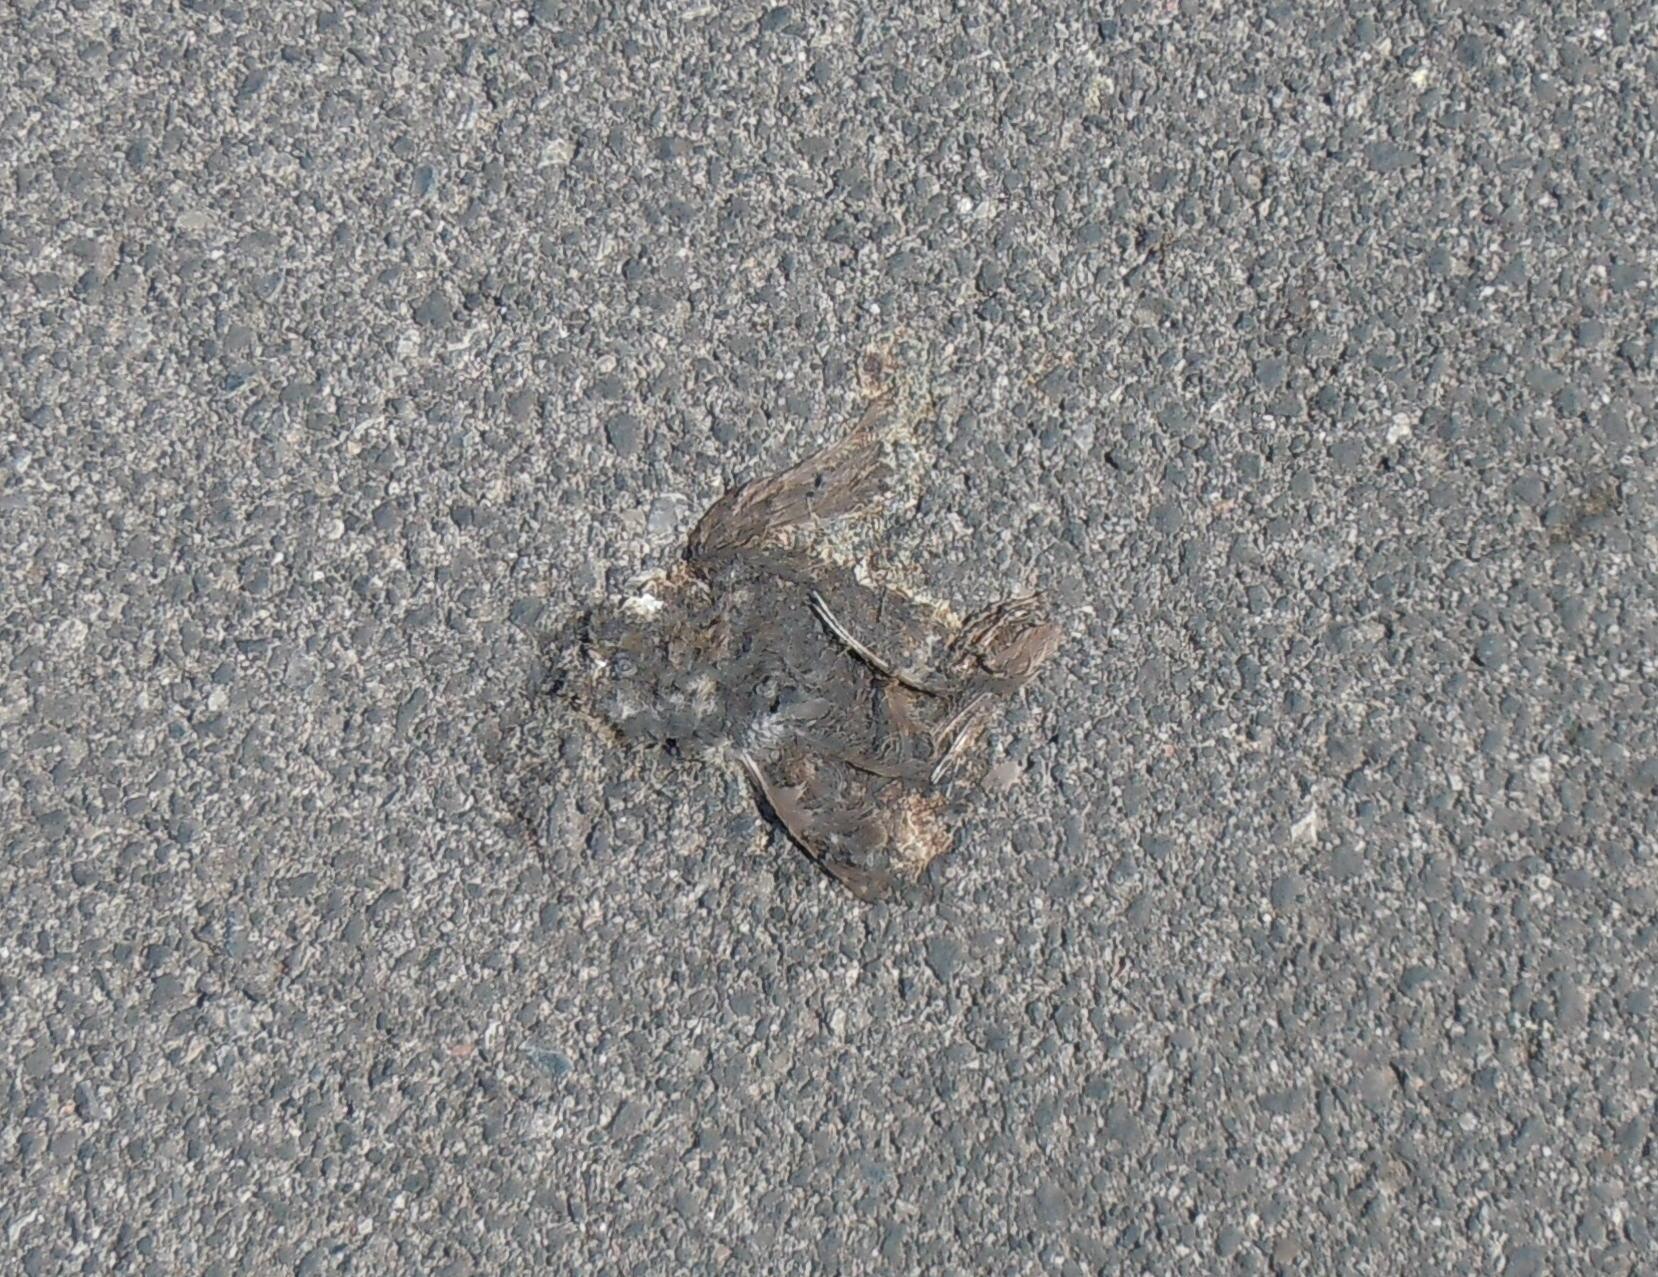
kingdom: Animalia
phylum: Chordata
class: Aves
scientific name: Aves
